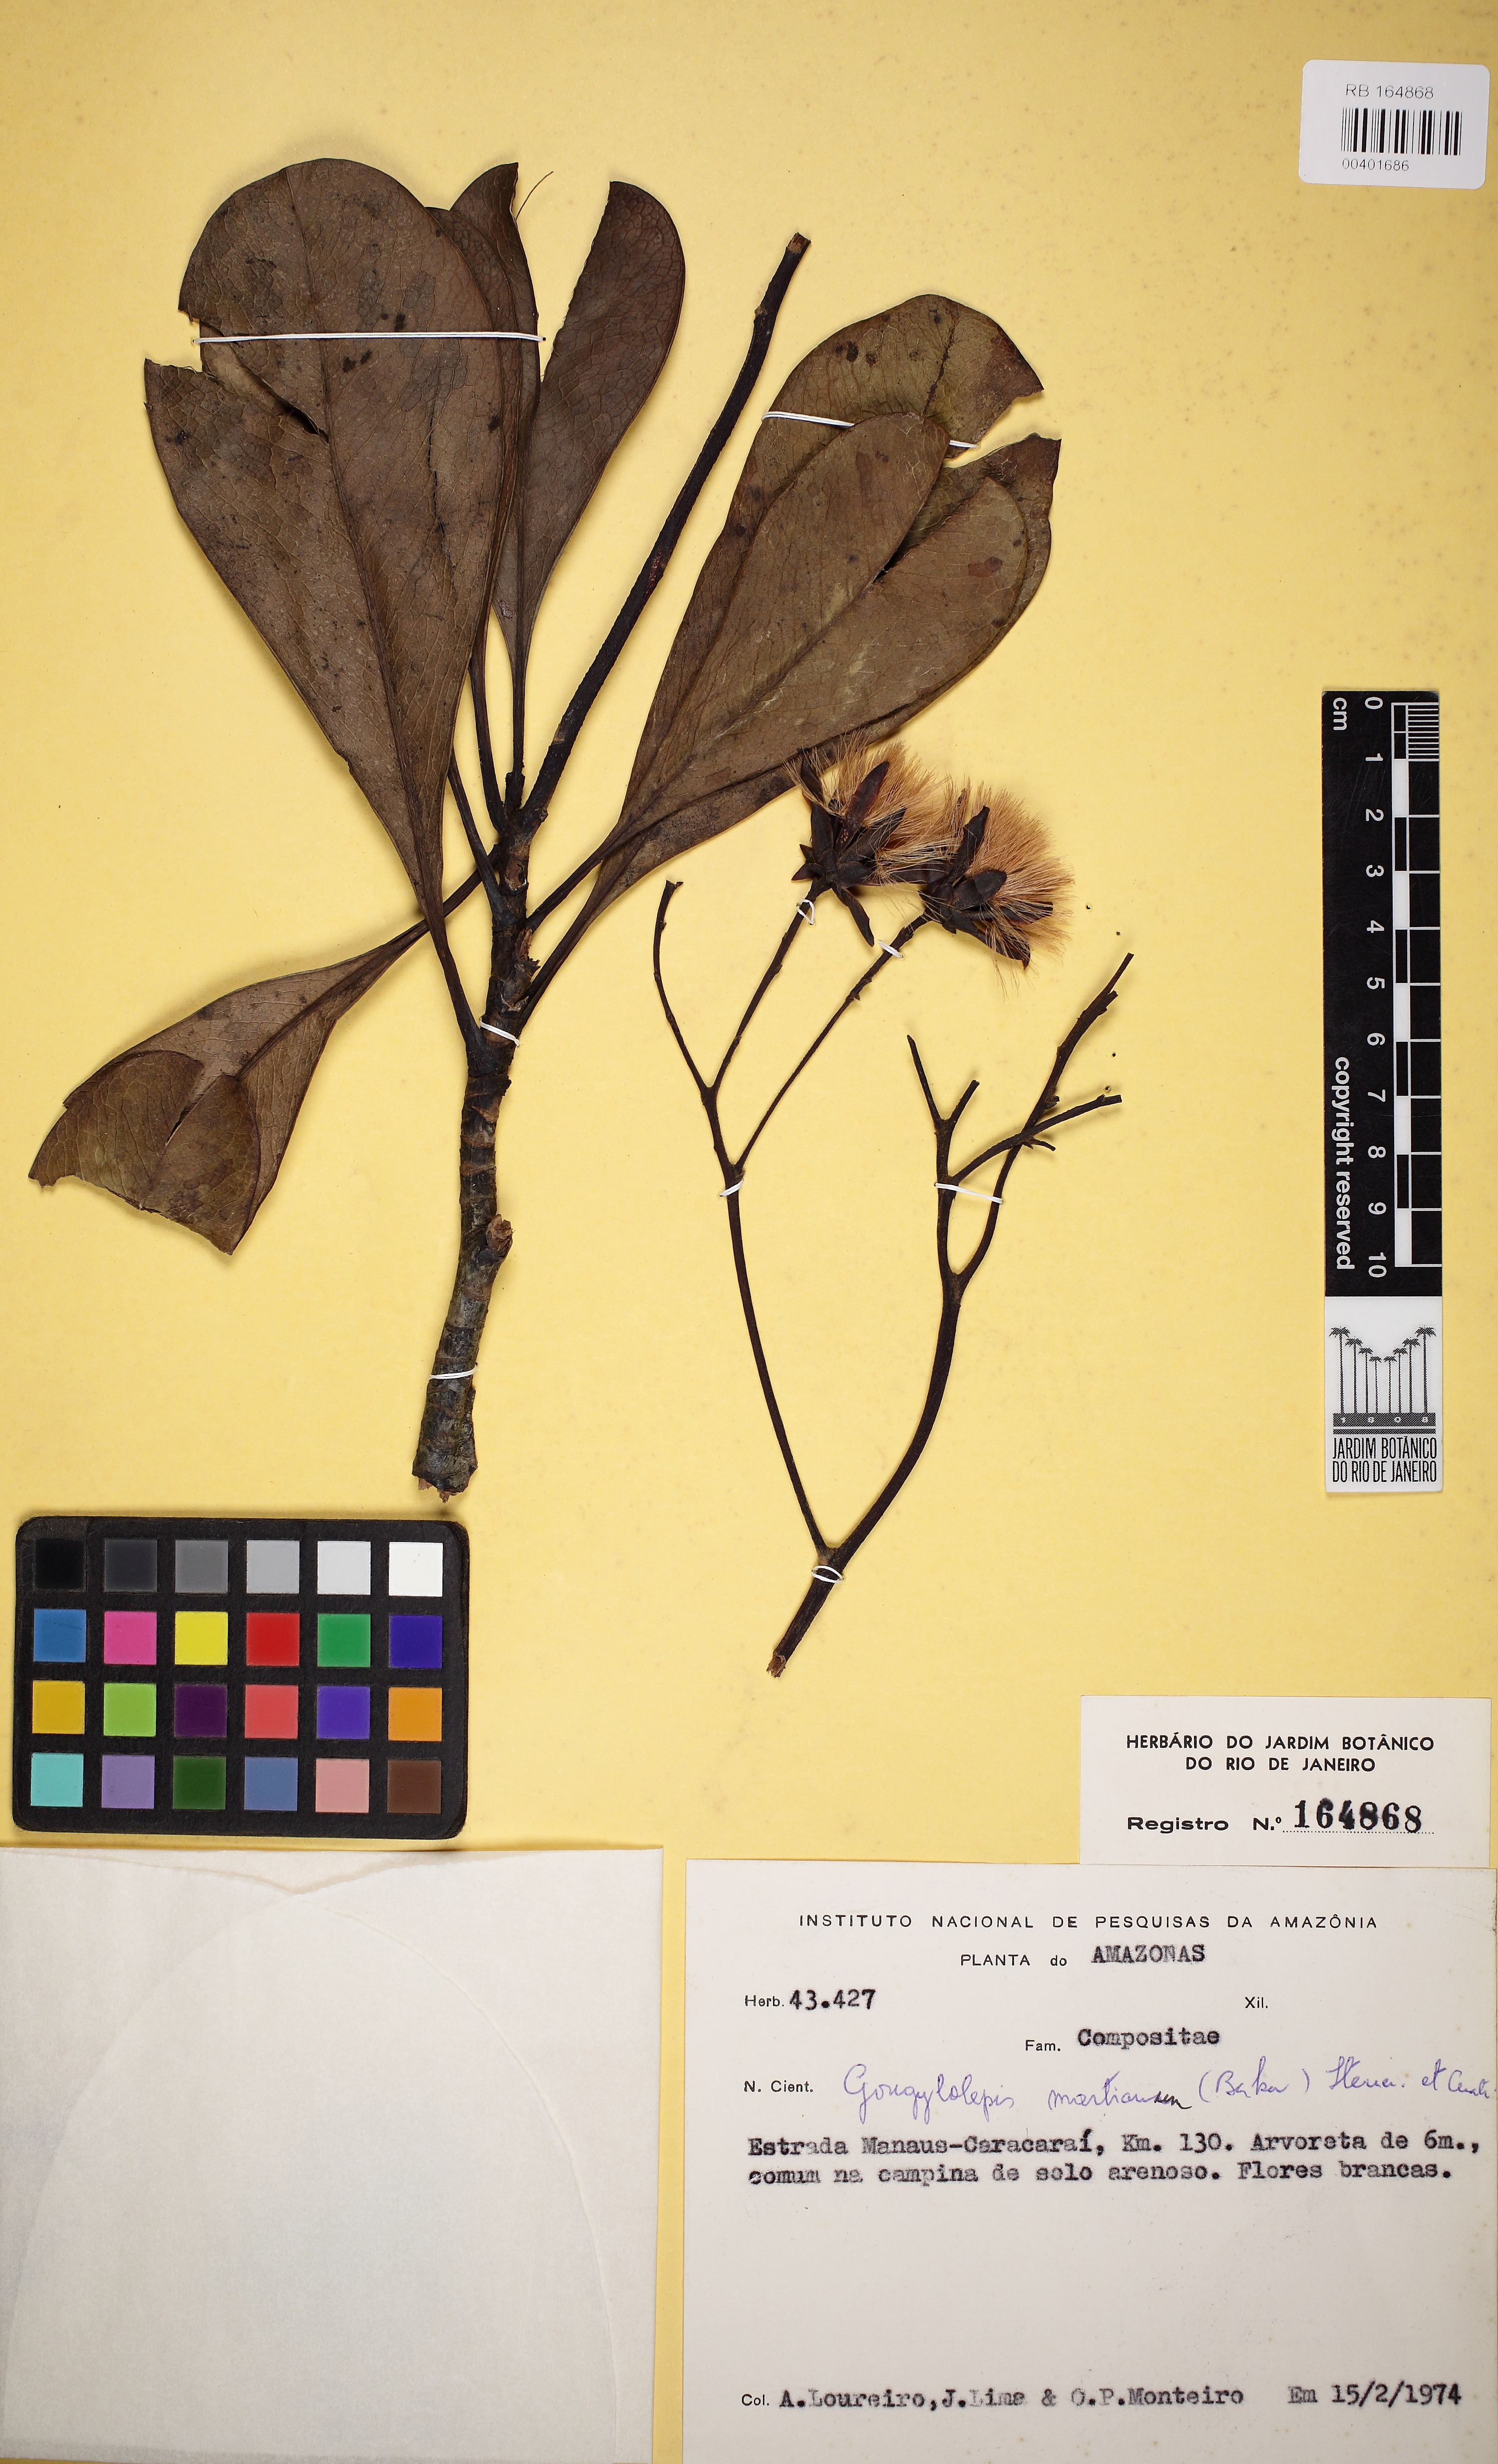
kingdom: Plantae
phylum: Tracheophyta
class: Magnoliopsida
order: Asterales
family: Asteraceae
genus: Gongylolepis
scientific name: Gongylolepis martiana
